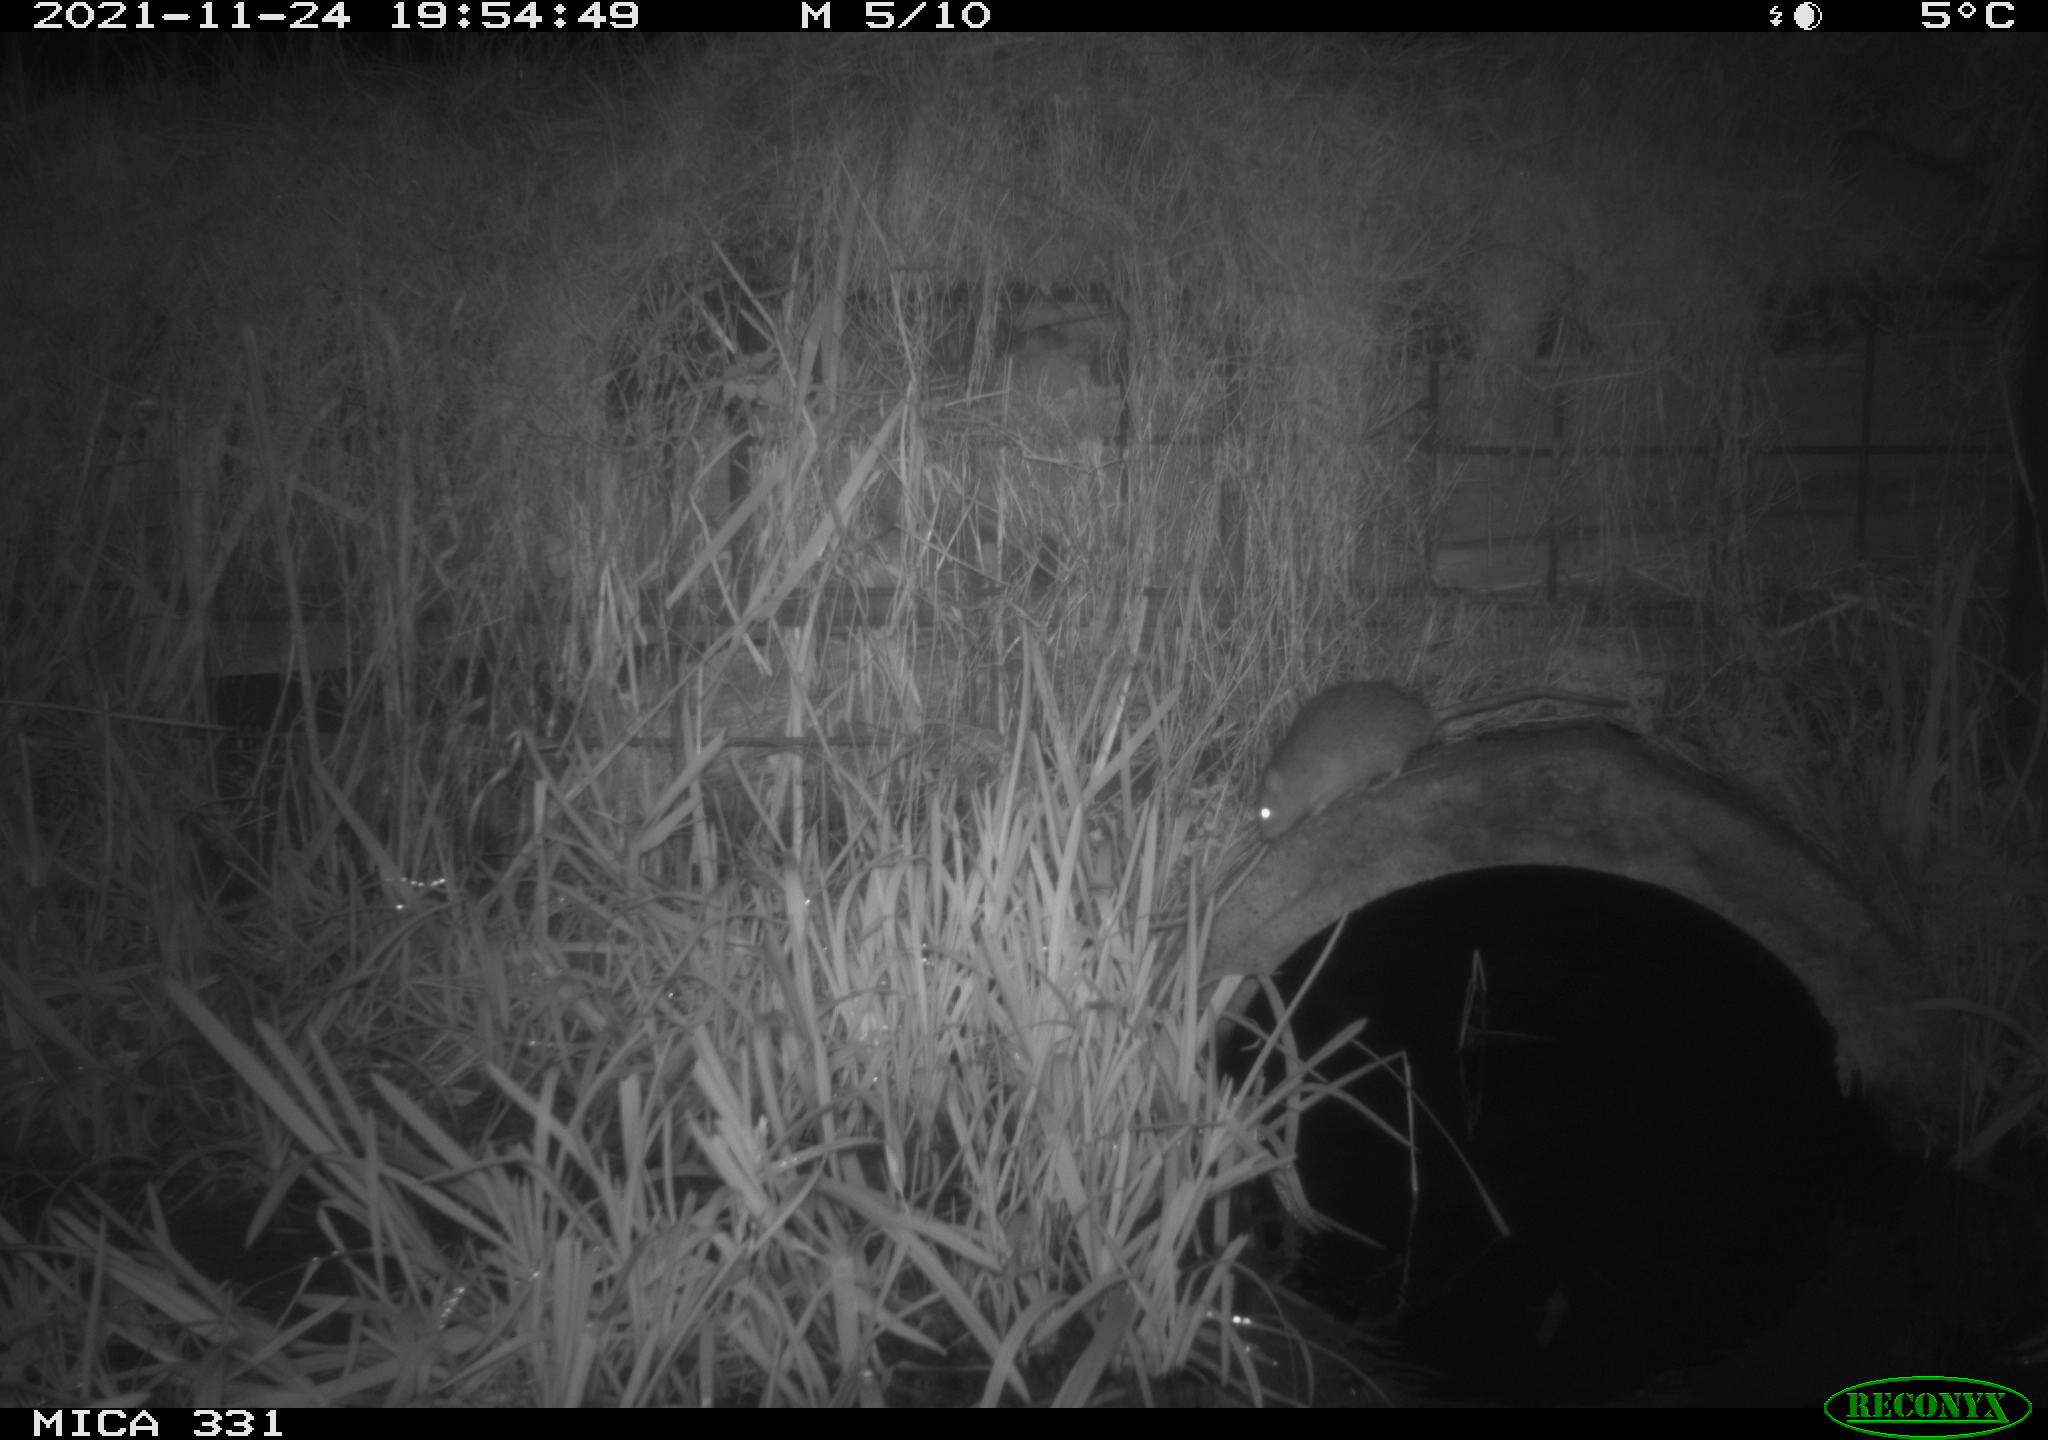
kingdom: Animalia
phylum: Chordata
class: Mammalia
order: Rodentia
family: Muridae
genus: Rattus
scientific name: Rattus norvegicus
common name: Brown rat
